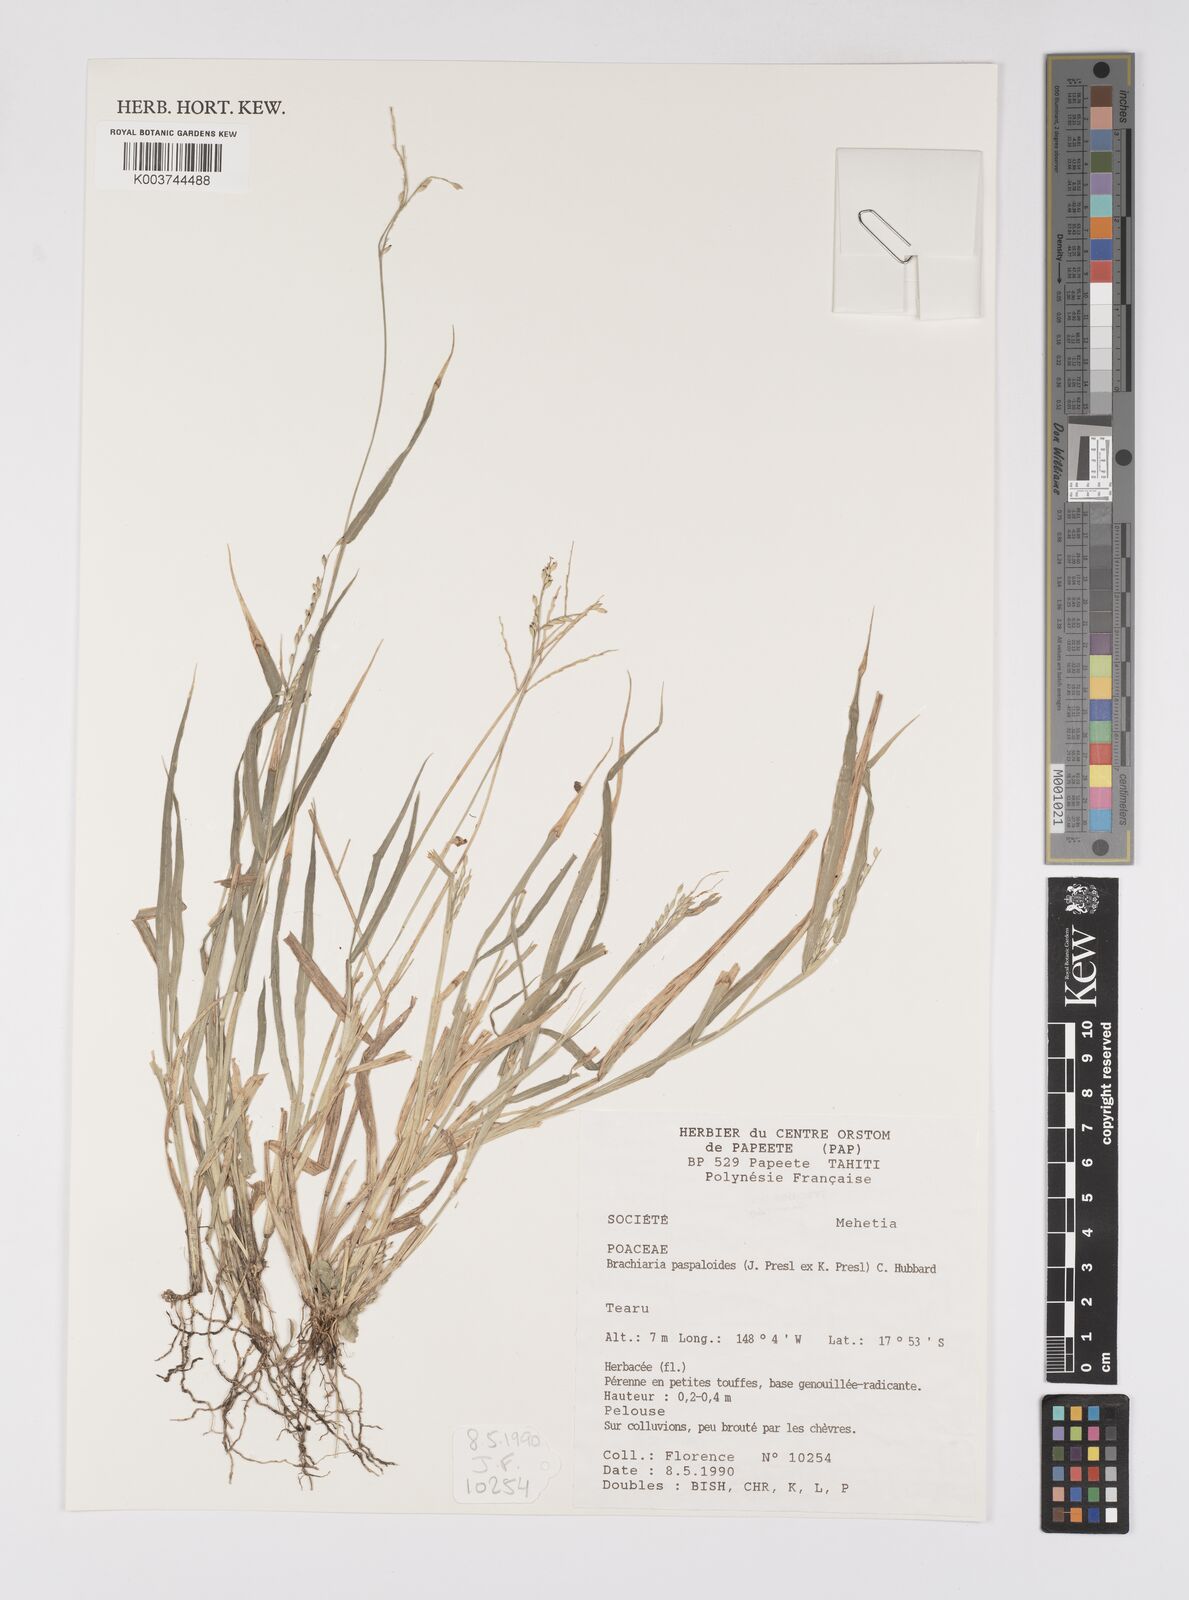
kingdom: Plantae
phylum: Tracheophyta
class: Liliopsida
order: Poales
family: Poaceae
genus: Urochloa
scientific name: Urochloa glumaris
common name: Thurston grass
